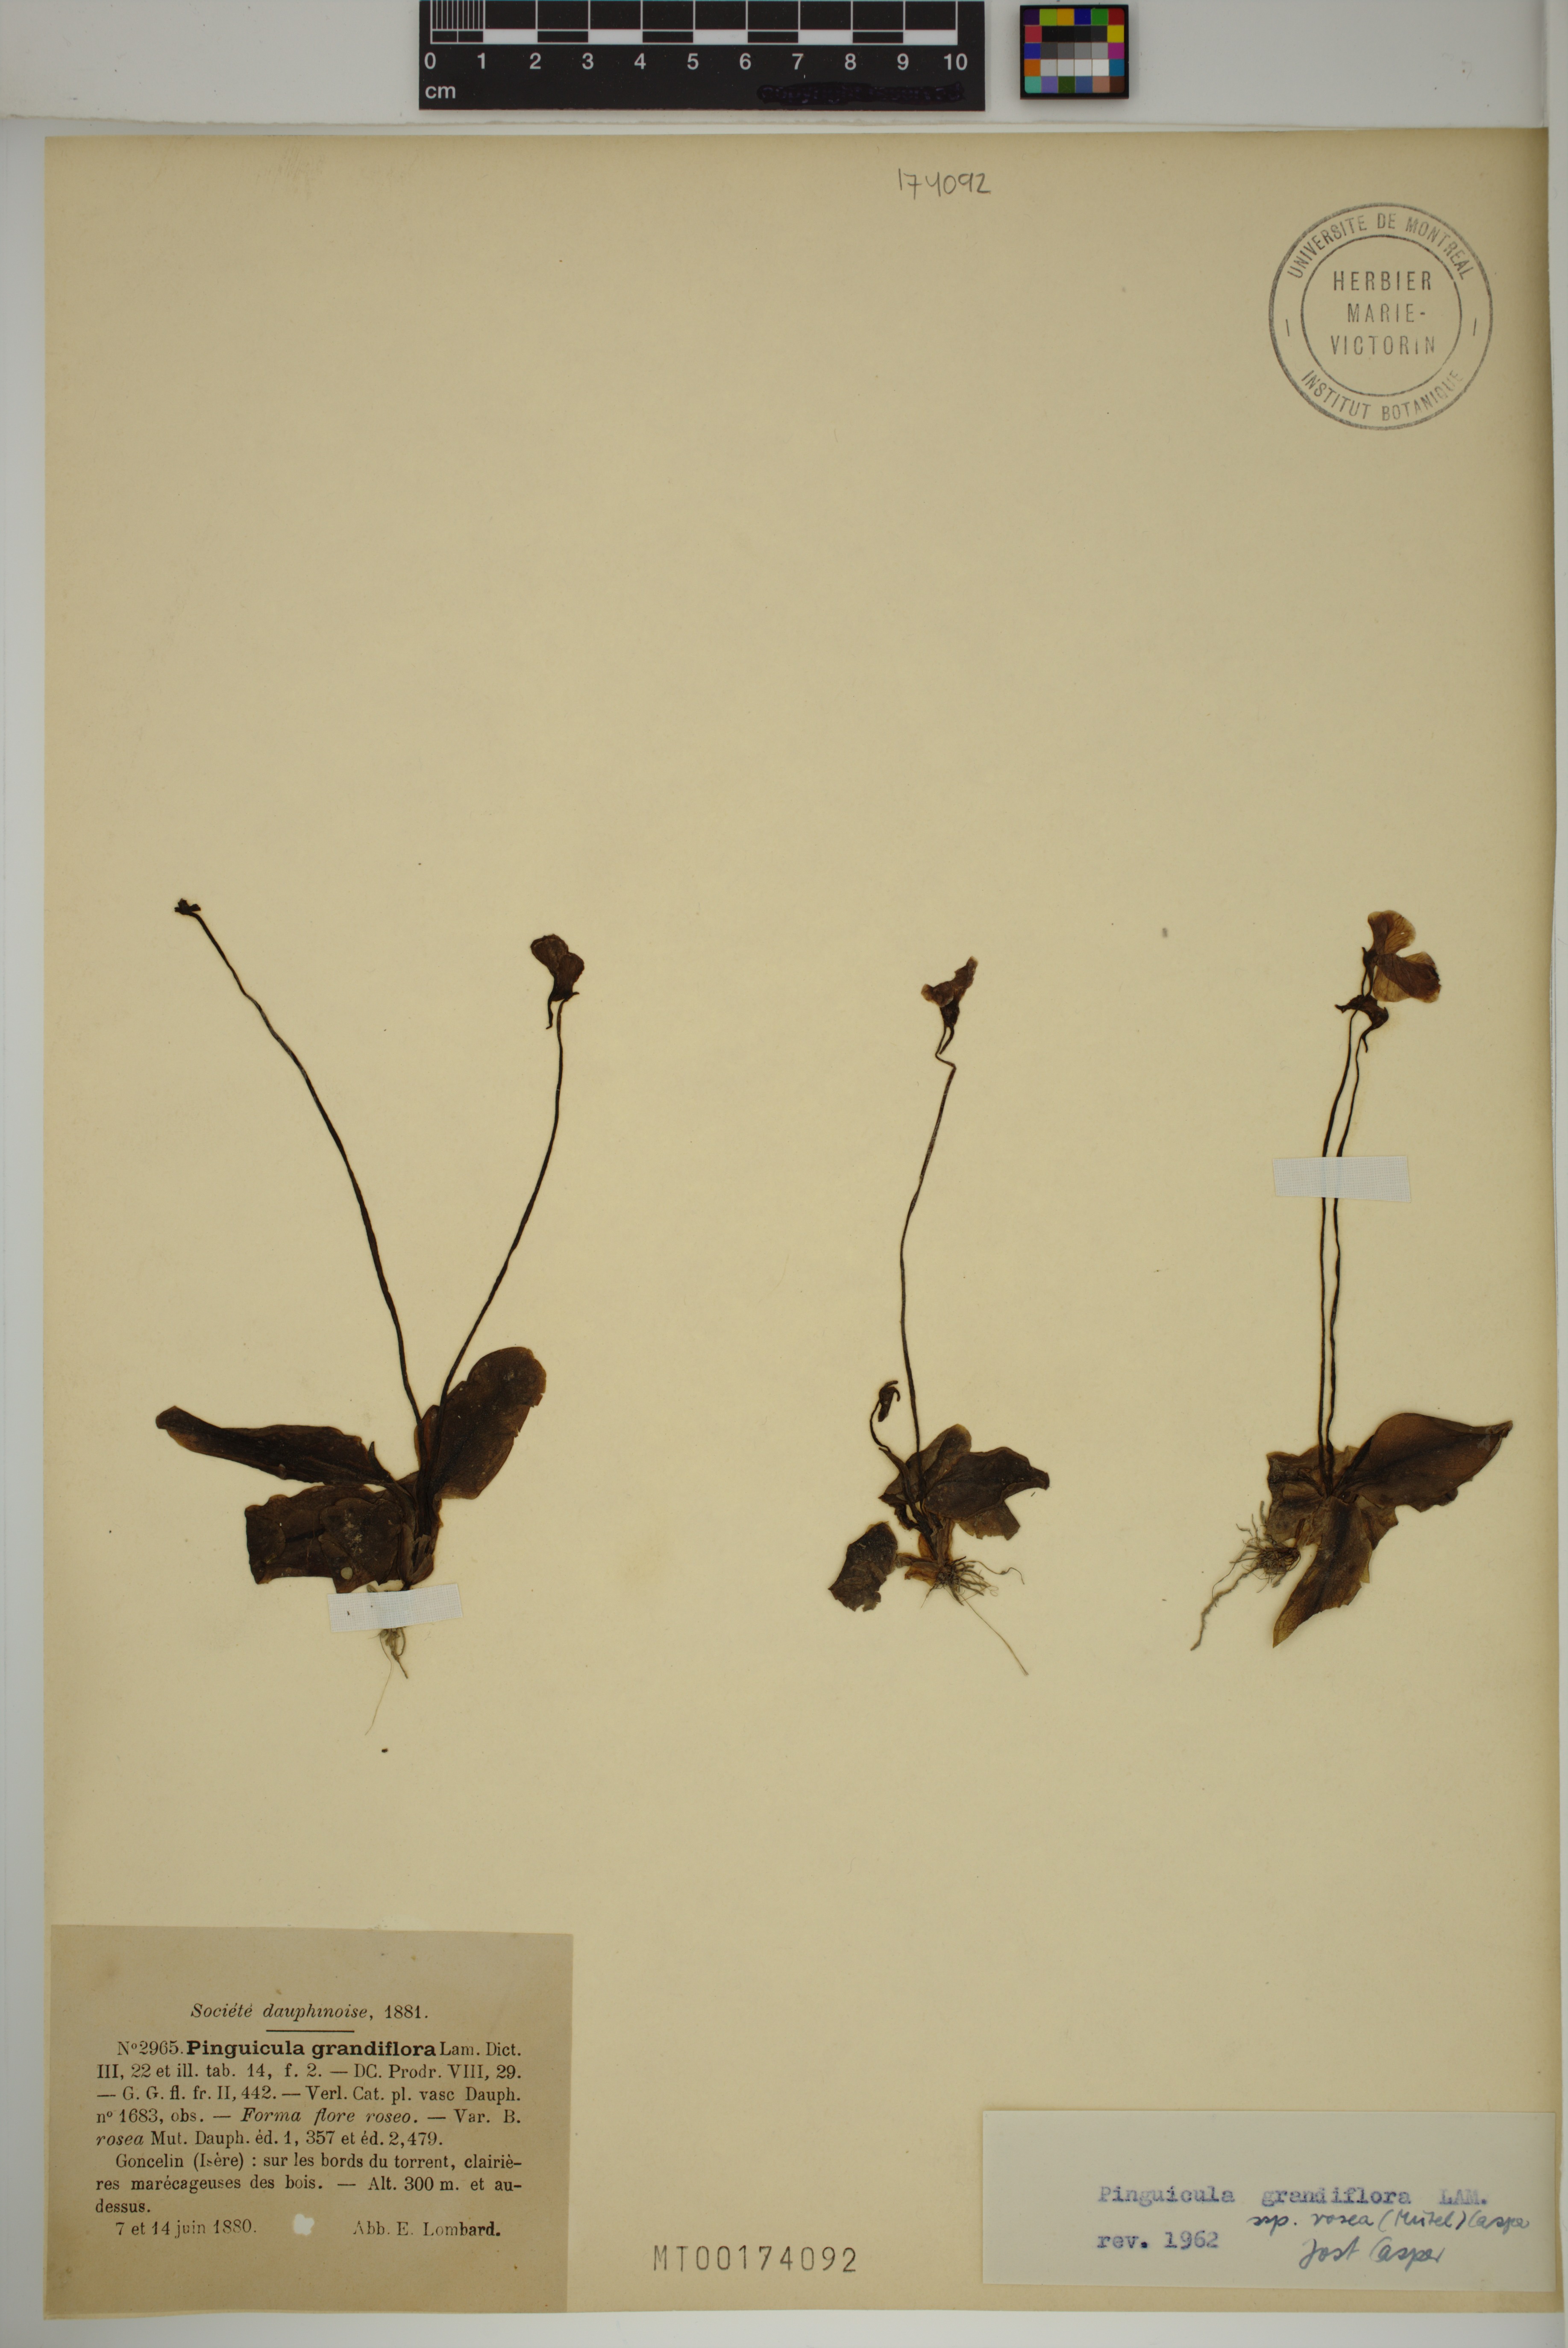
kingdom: Plantae
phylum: Tracheophyta
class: Magnoliopsida
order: Lamiales
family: Lentibulariaceae
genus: Pinguicula
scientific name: Pinguicula grandiflora
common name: Large-flowered butterwort
